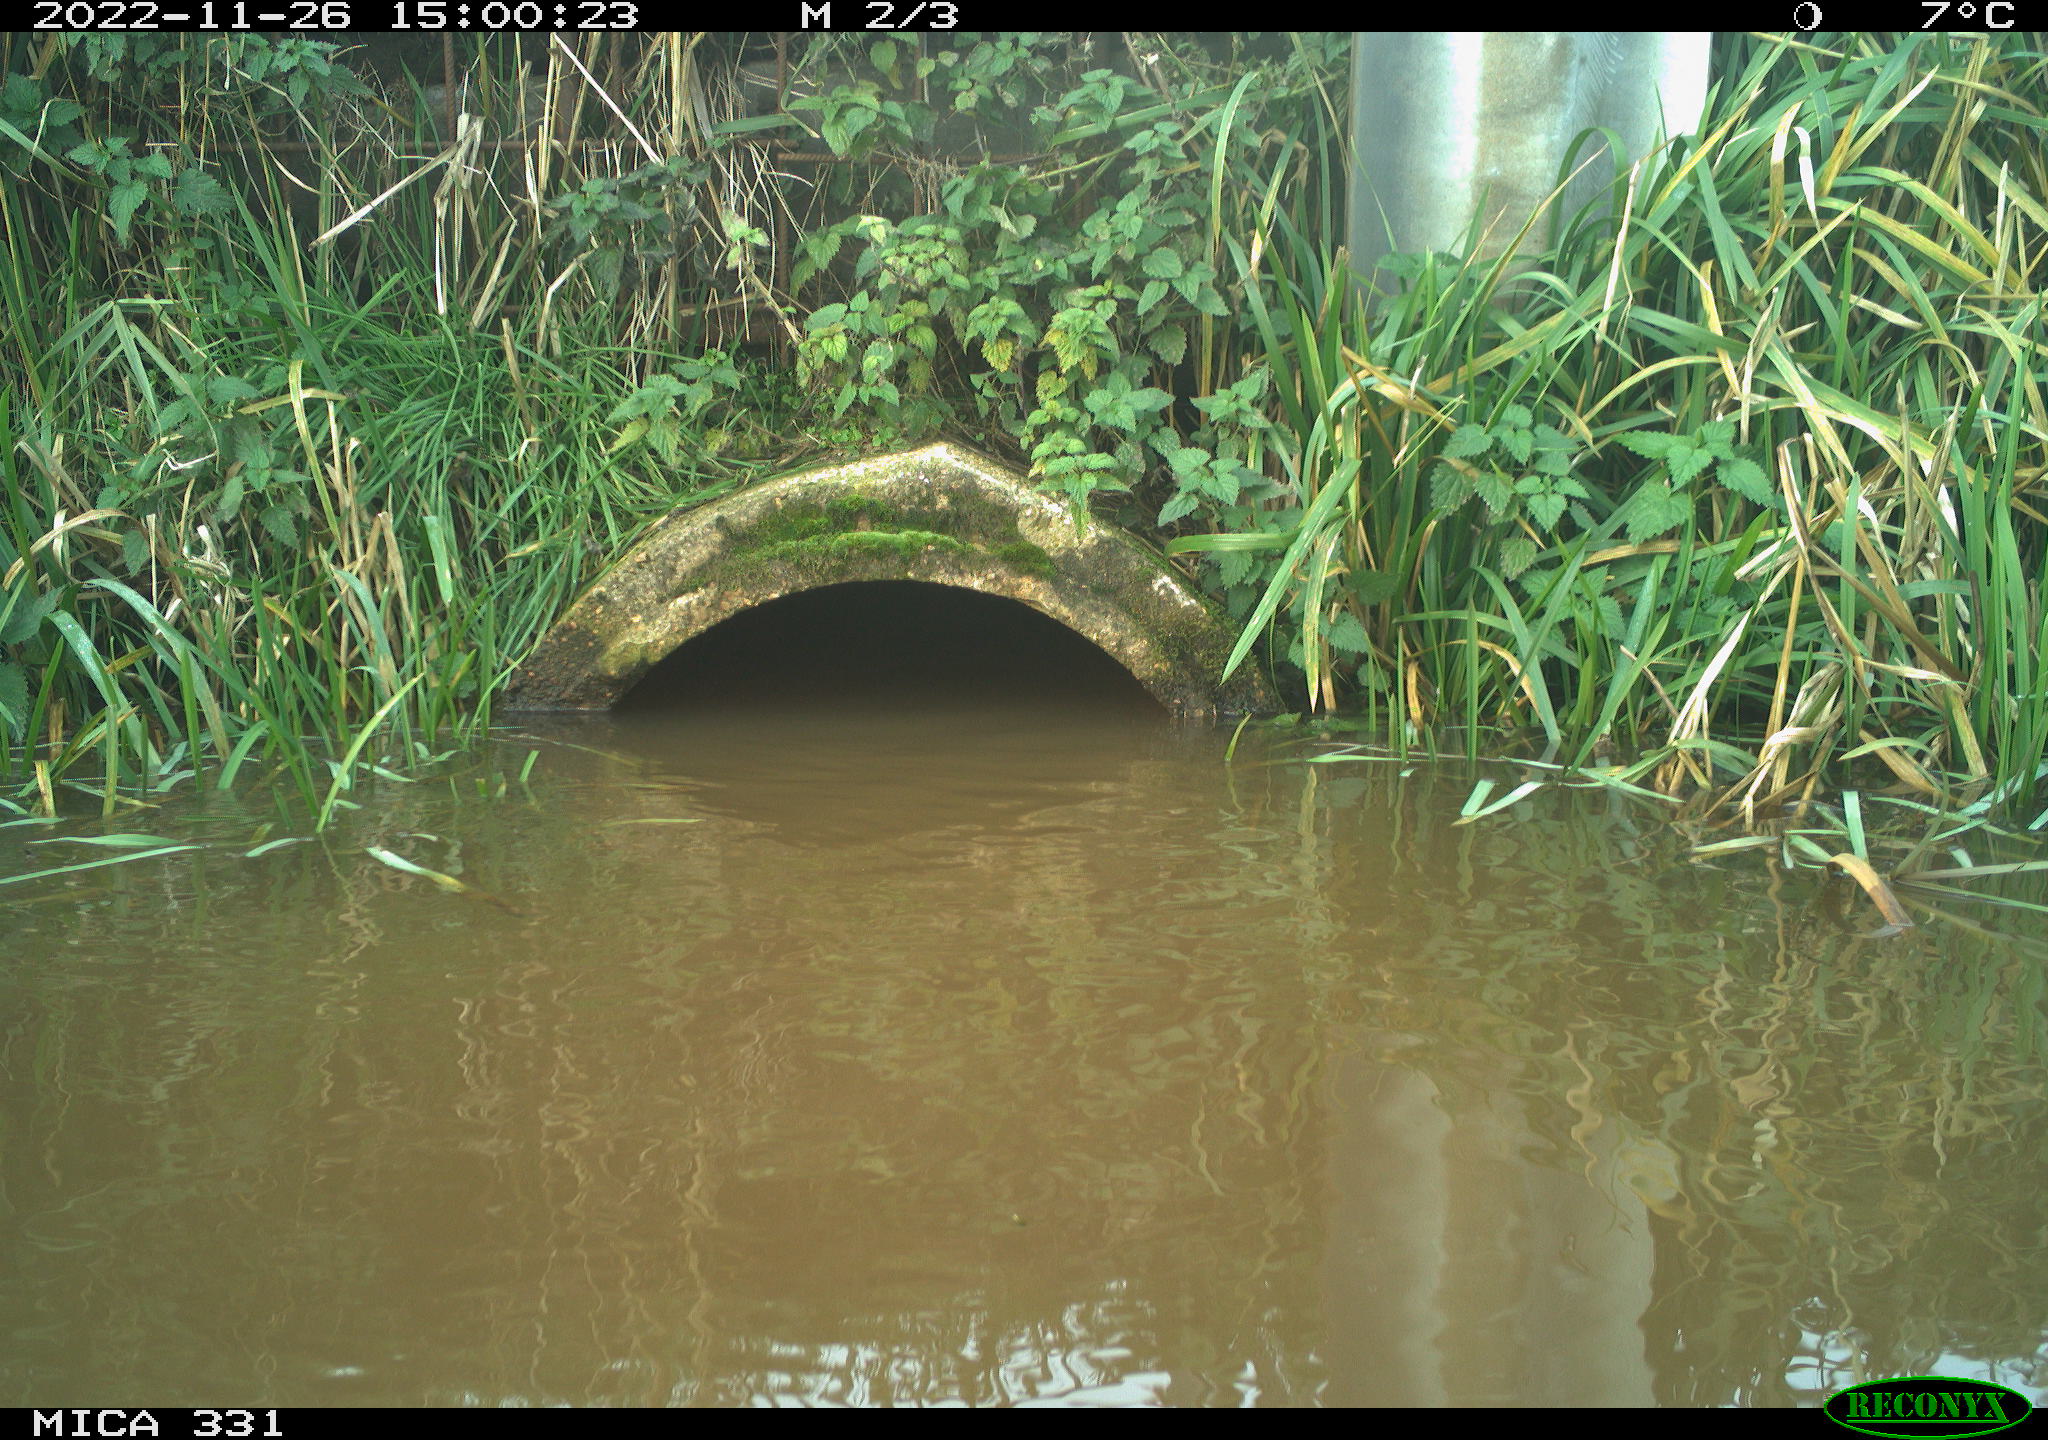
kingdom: Animalia
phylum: Chordata
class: Aves
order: Gruiformes
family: Rallidae
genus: Gallinula
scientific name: Gallinula chloropus
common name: Common moorhen
